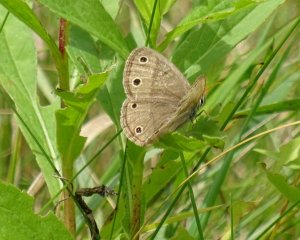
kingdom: Animalia
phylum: Arthropoda
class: Insecta
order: Lepidoptera
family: Nymphalidae
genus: Euptychia
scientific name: Euptychia cymela
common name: Little Wood Satyr
